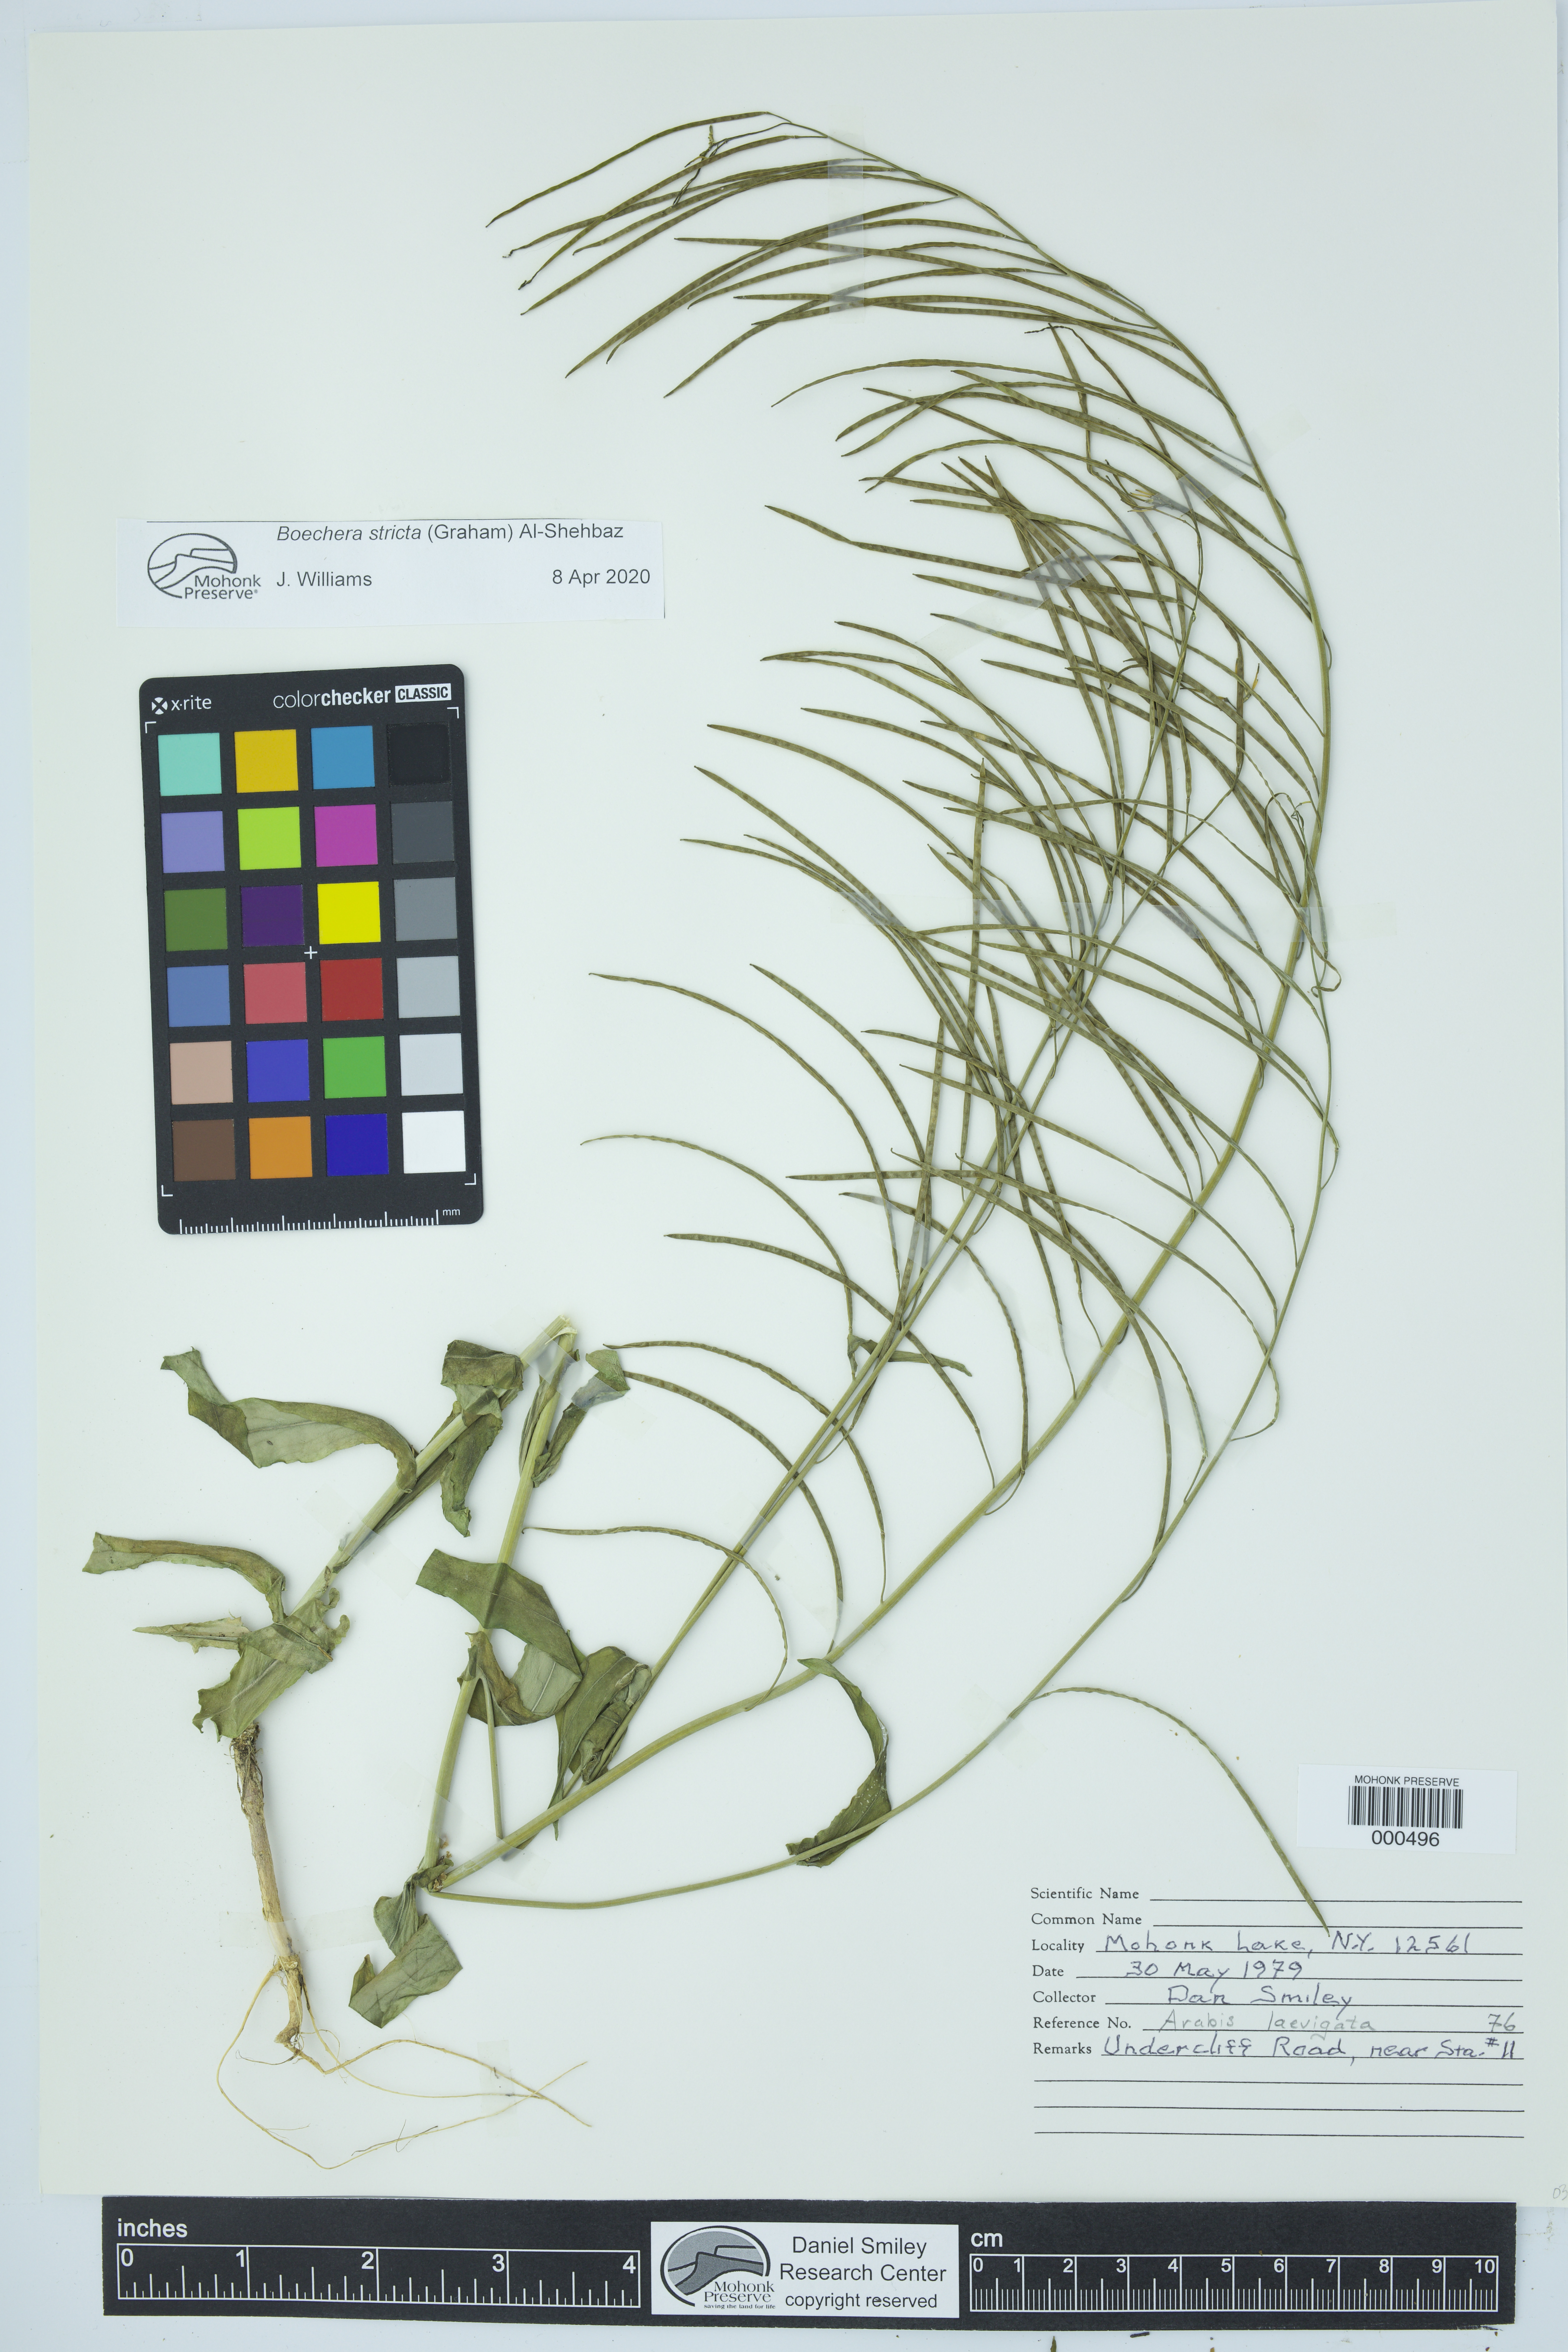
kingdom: Plantae
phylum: Tracheophyta
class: Magnoliopsida
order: Brassicales
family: Brassicaceae
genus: Boechera
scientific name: Boechera stricta
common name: Canadian rockcress
